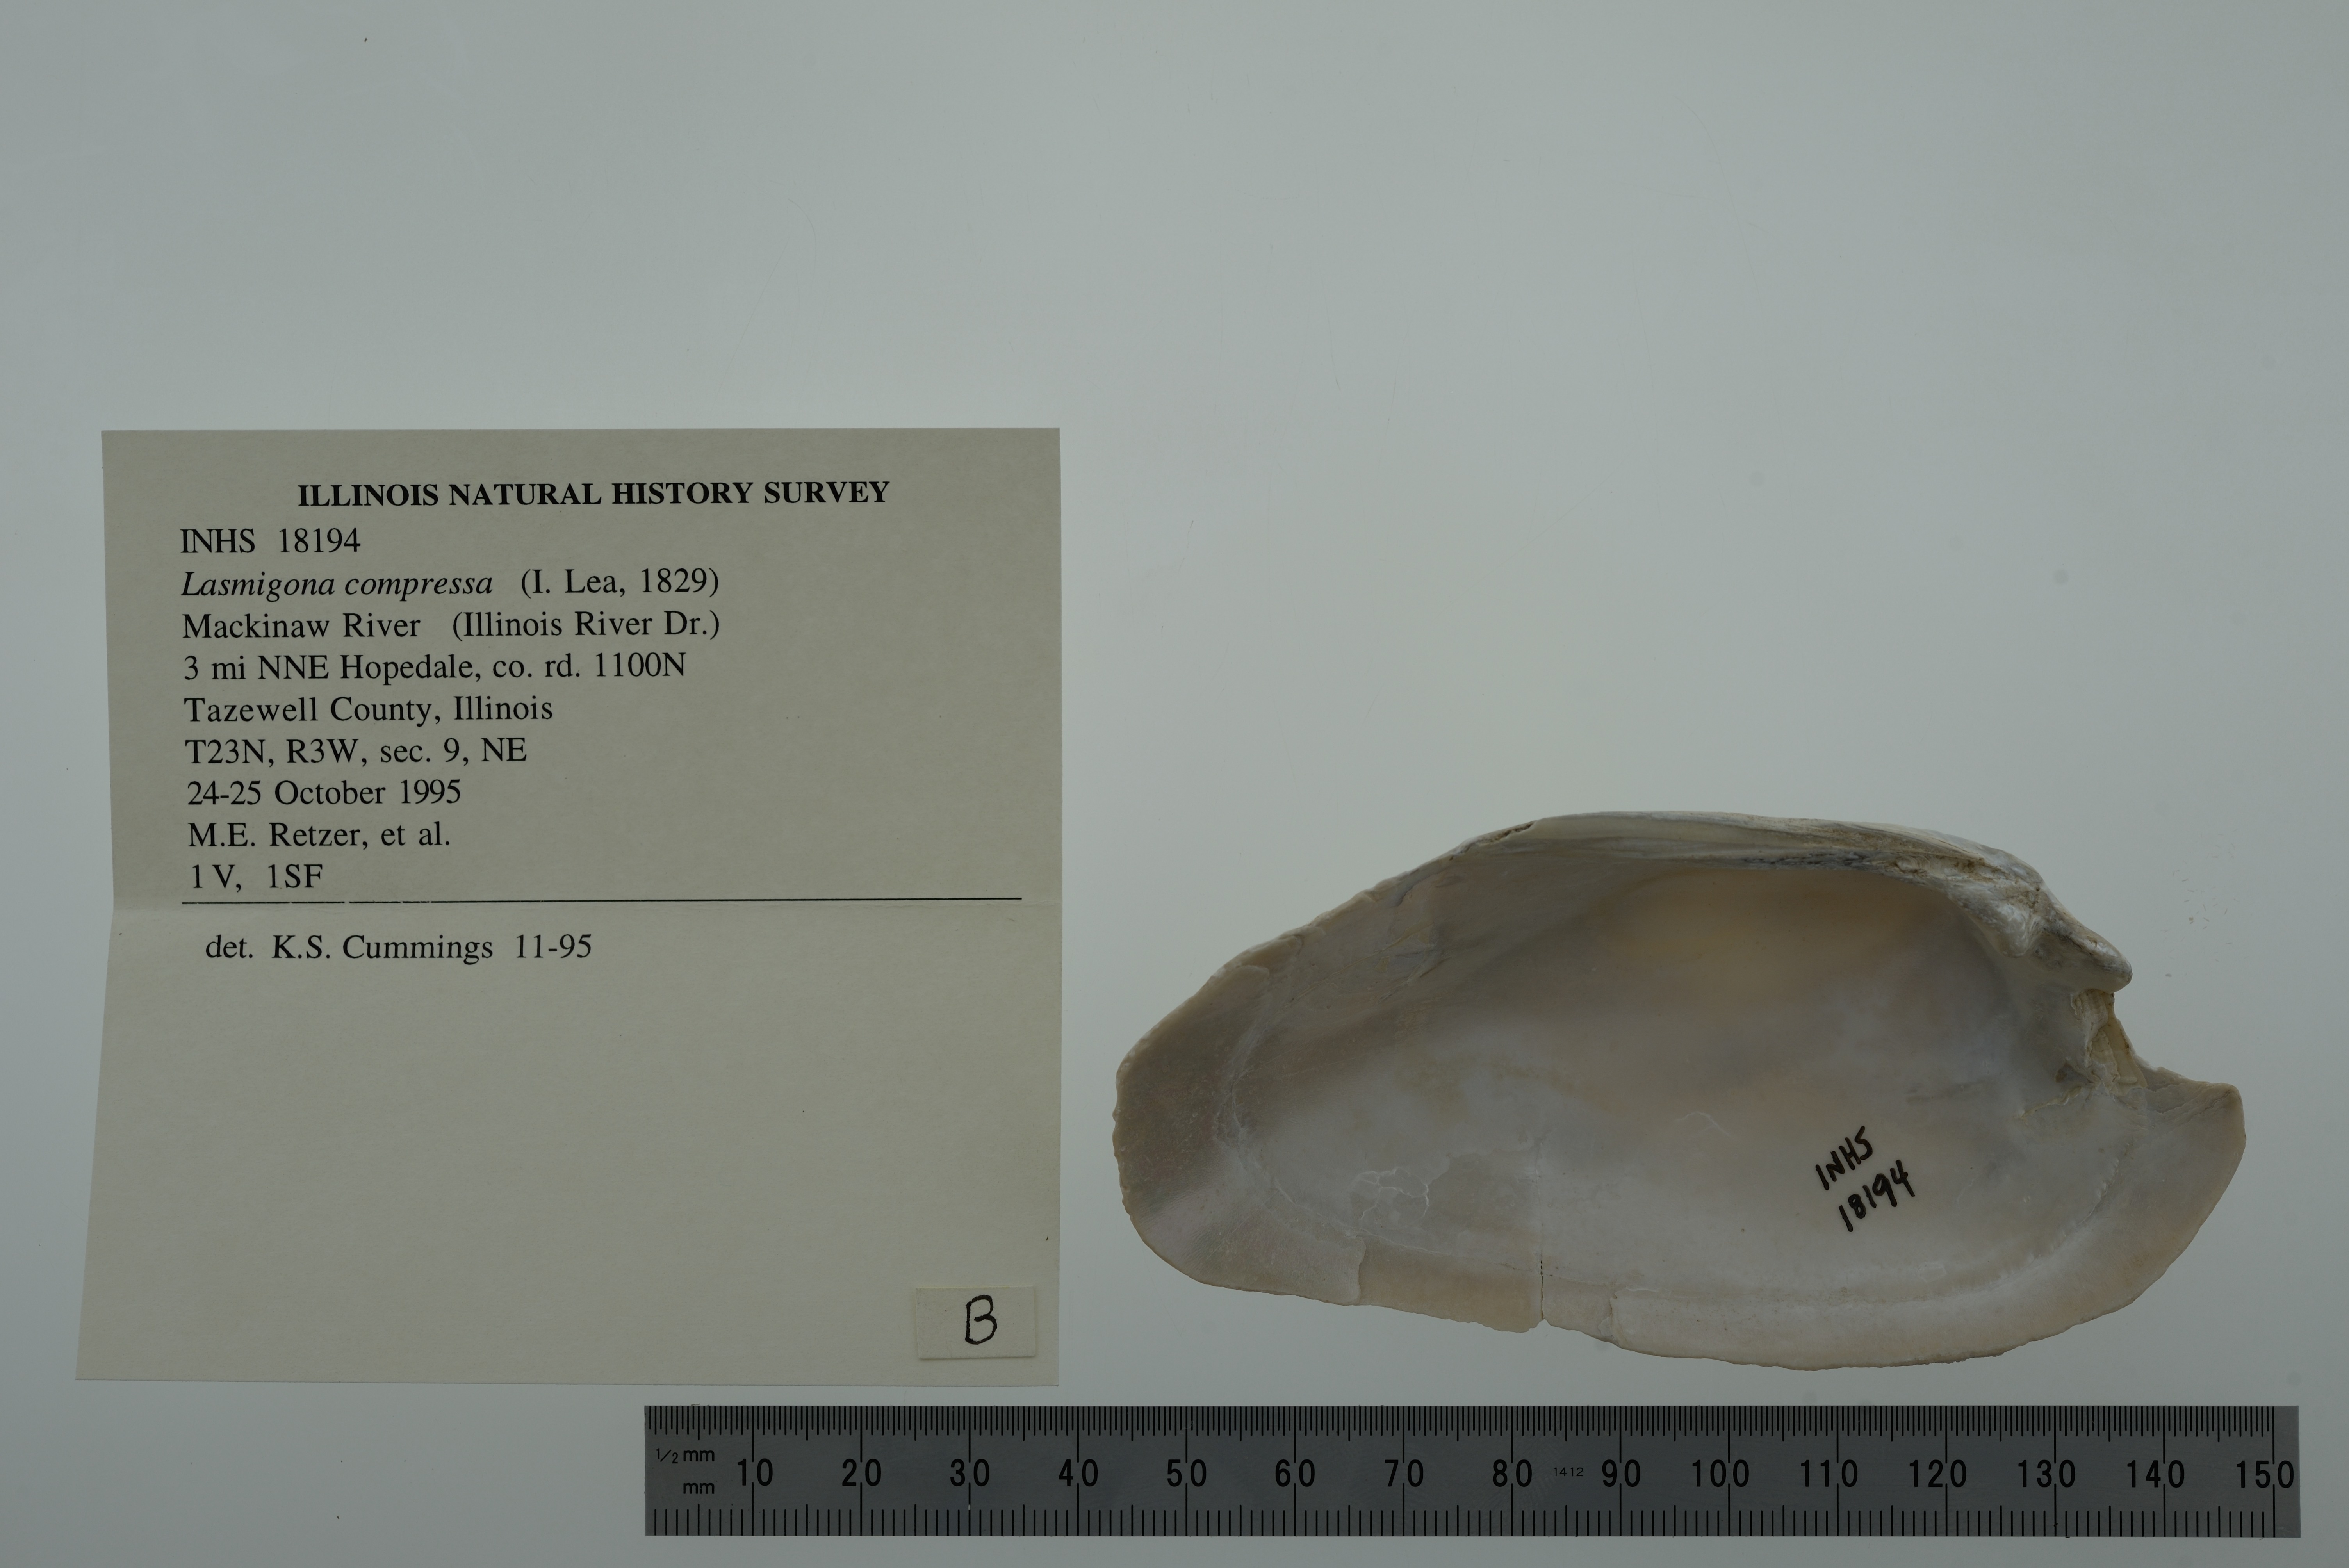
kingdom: Animalia
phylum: Mollusca
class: Bivalvia
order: Unionida
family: Unionidae
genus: Lasmigona
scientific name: Lasmigona compressa
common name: Creek heelsplitter
